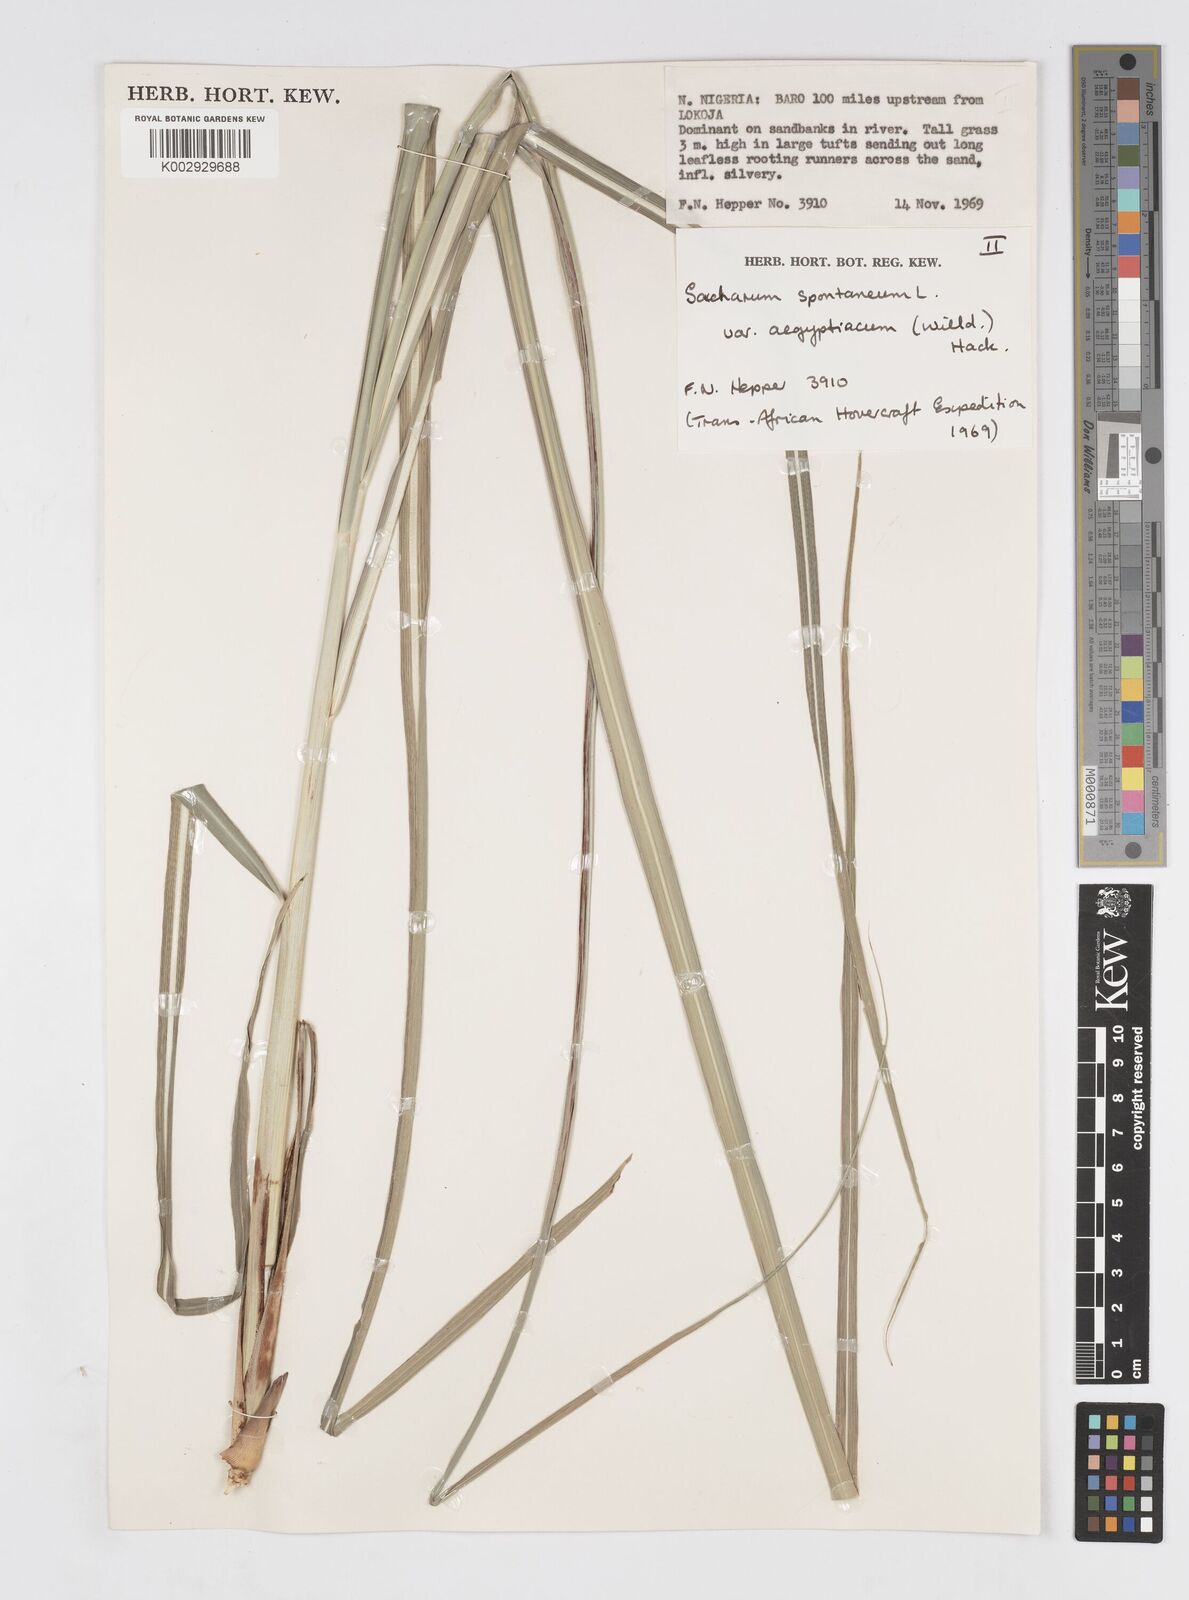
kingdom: Plantae
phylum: Tracheophyta
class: Liliopsida
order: Poales
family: Poaceae
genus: Saccharum
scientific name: Saccharum spontaneum
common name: Wild sugarcane
